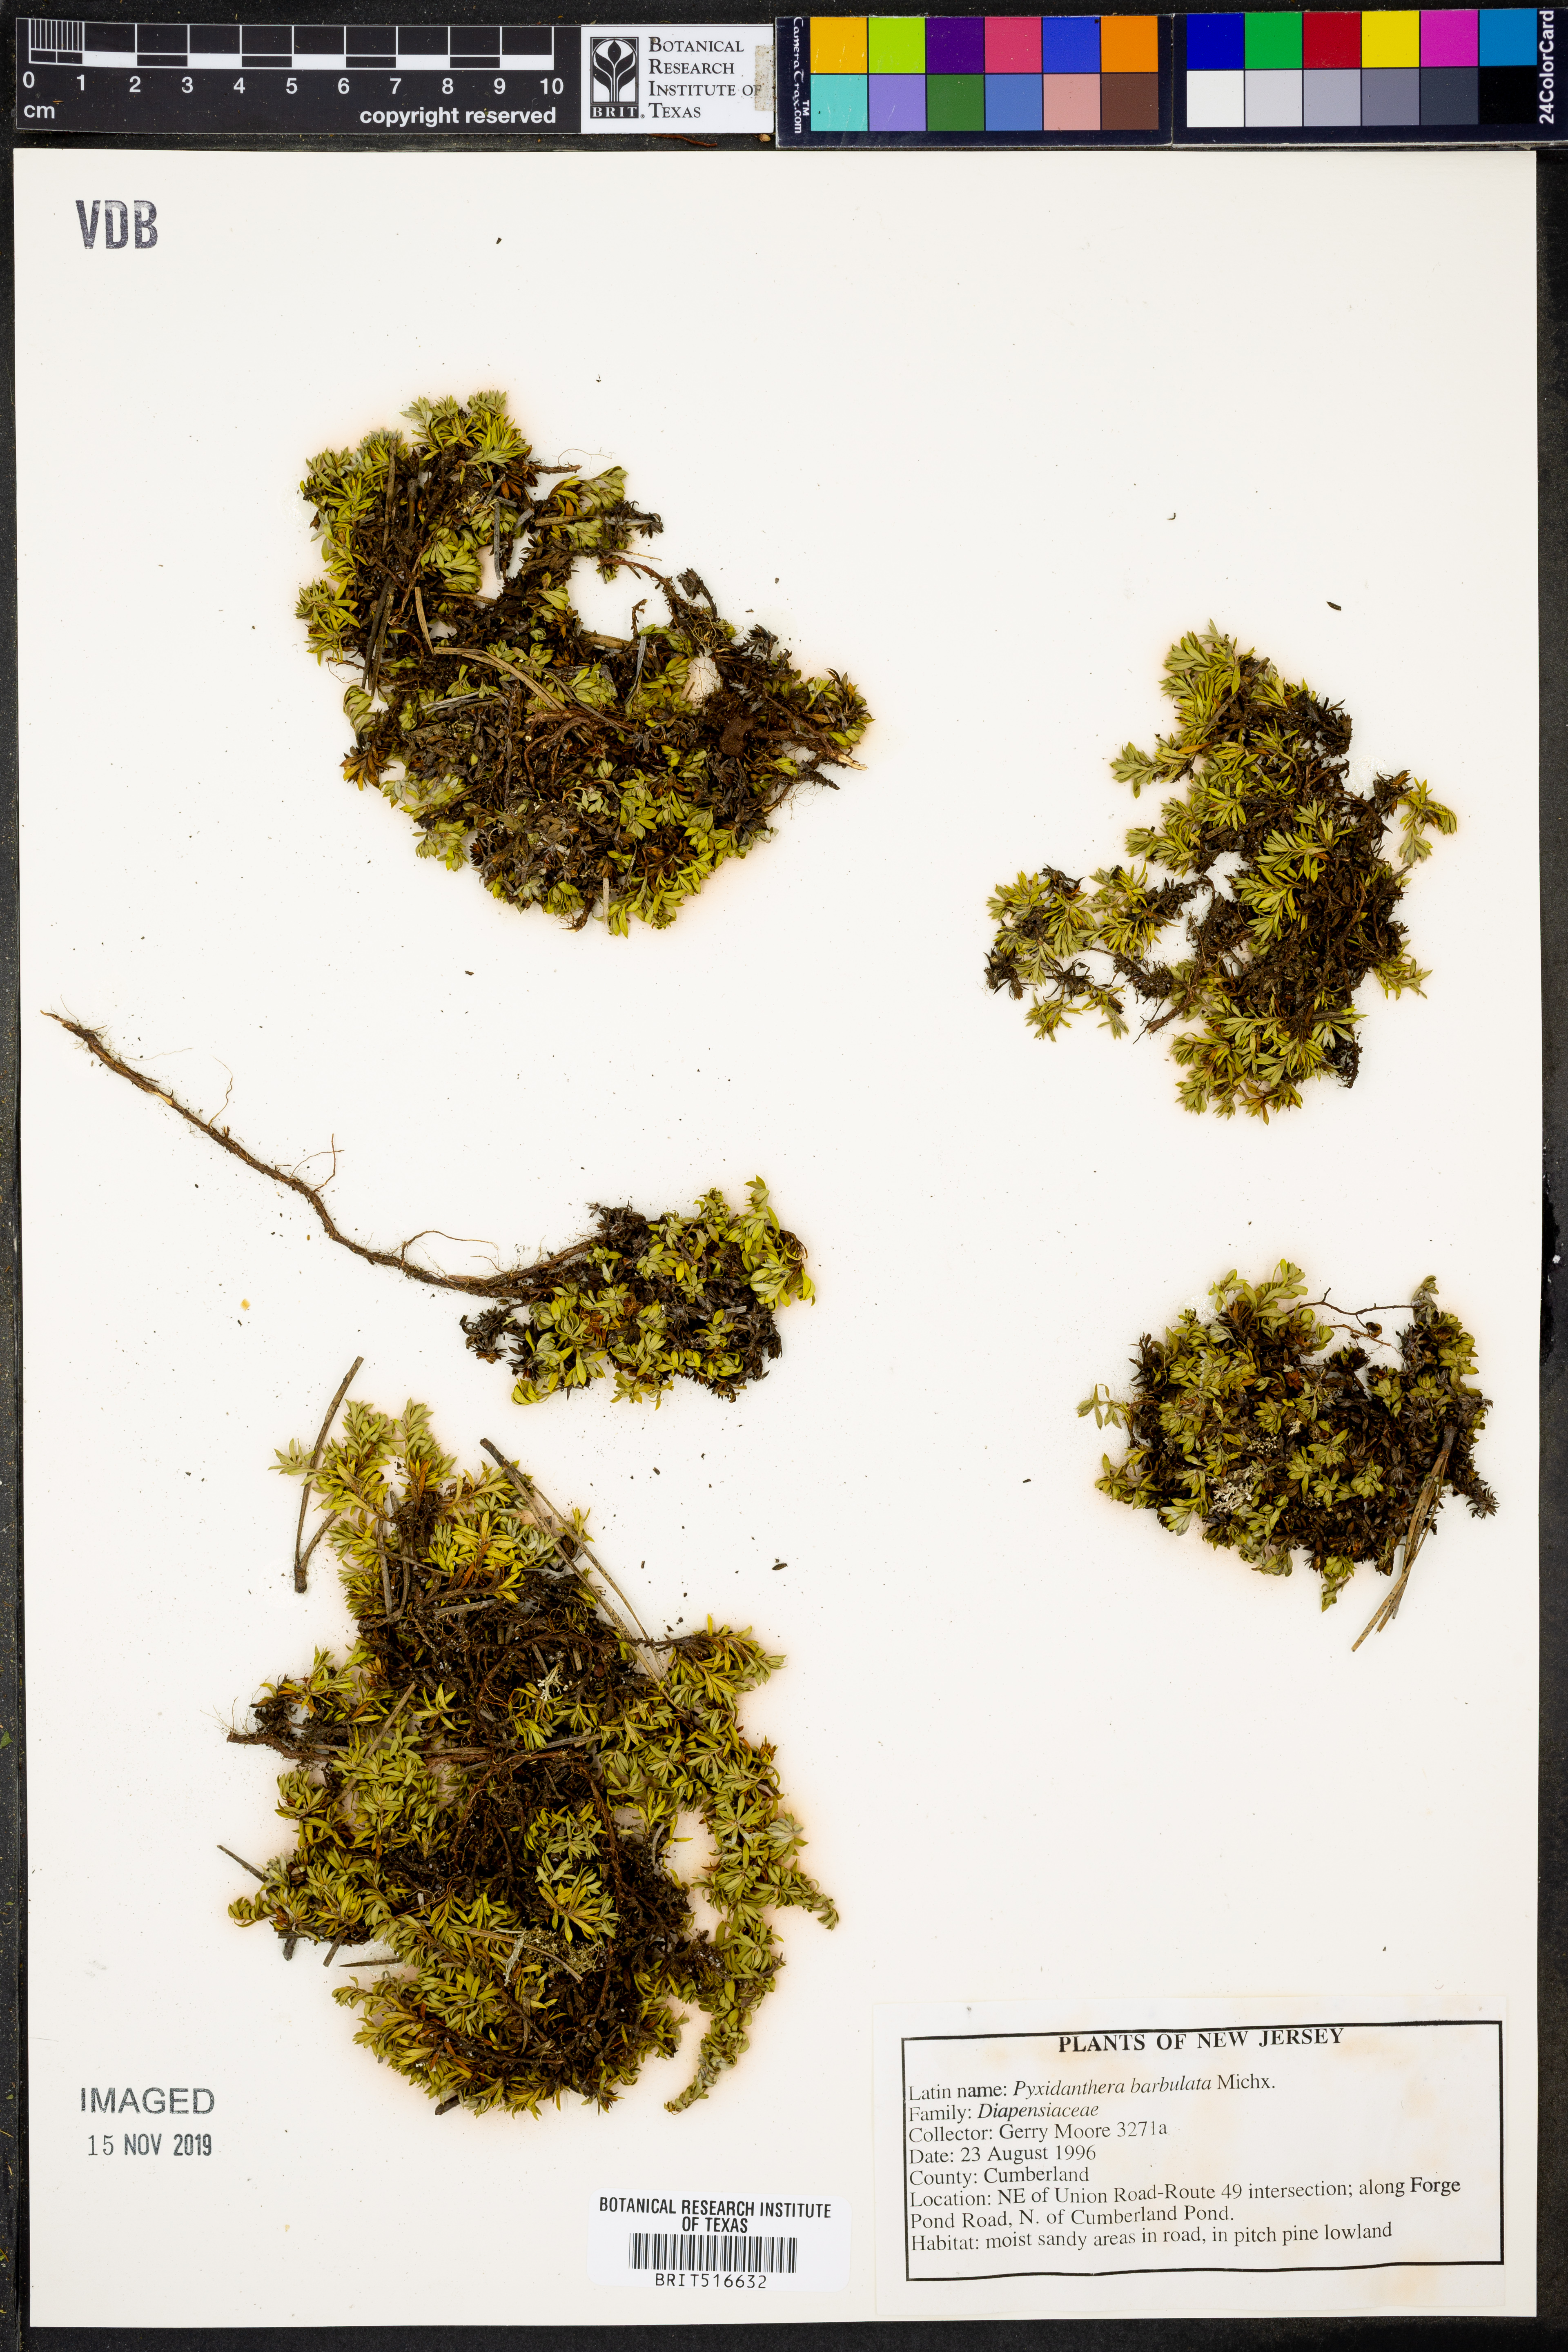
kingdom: Plantae
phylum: Tracheophyta
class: Magnoliopsida
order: Ericales
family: Diapensiaceae
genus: Pyxidanthera
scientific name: Pyxidanthera barbulata
